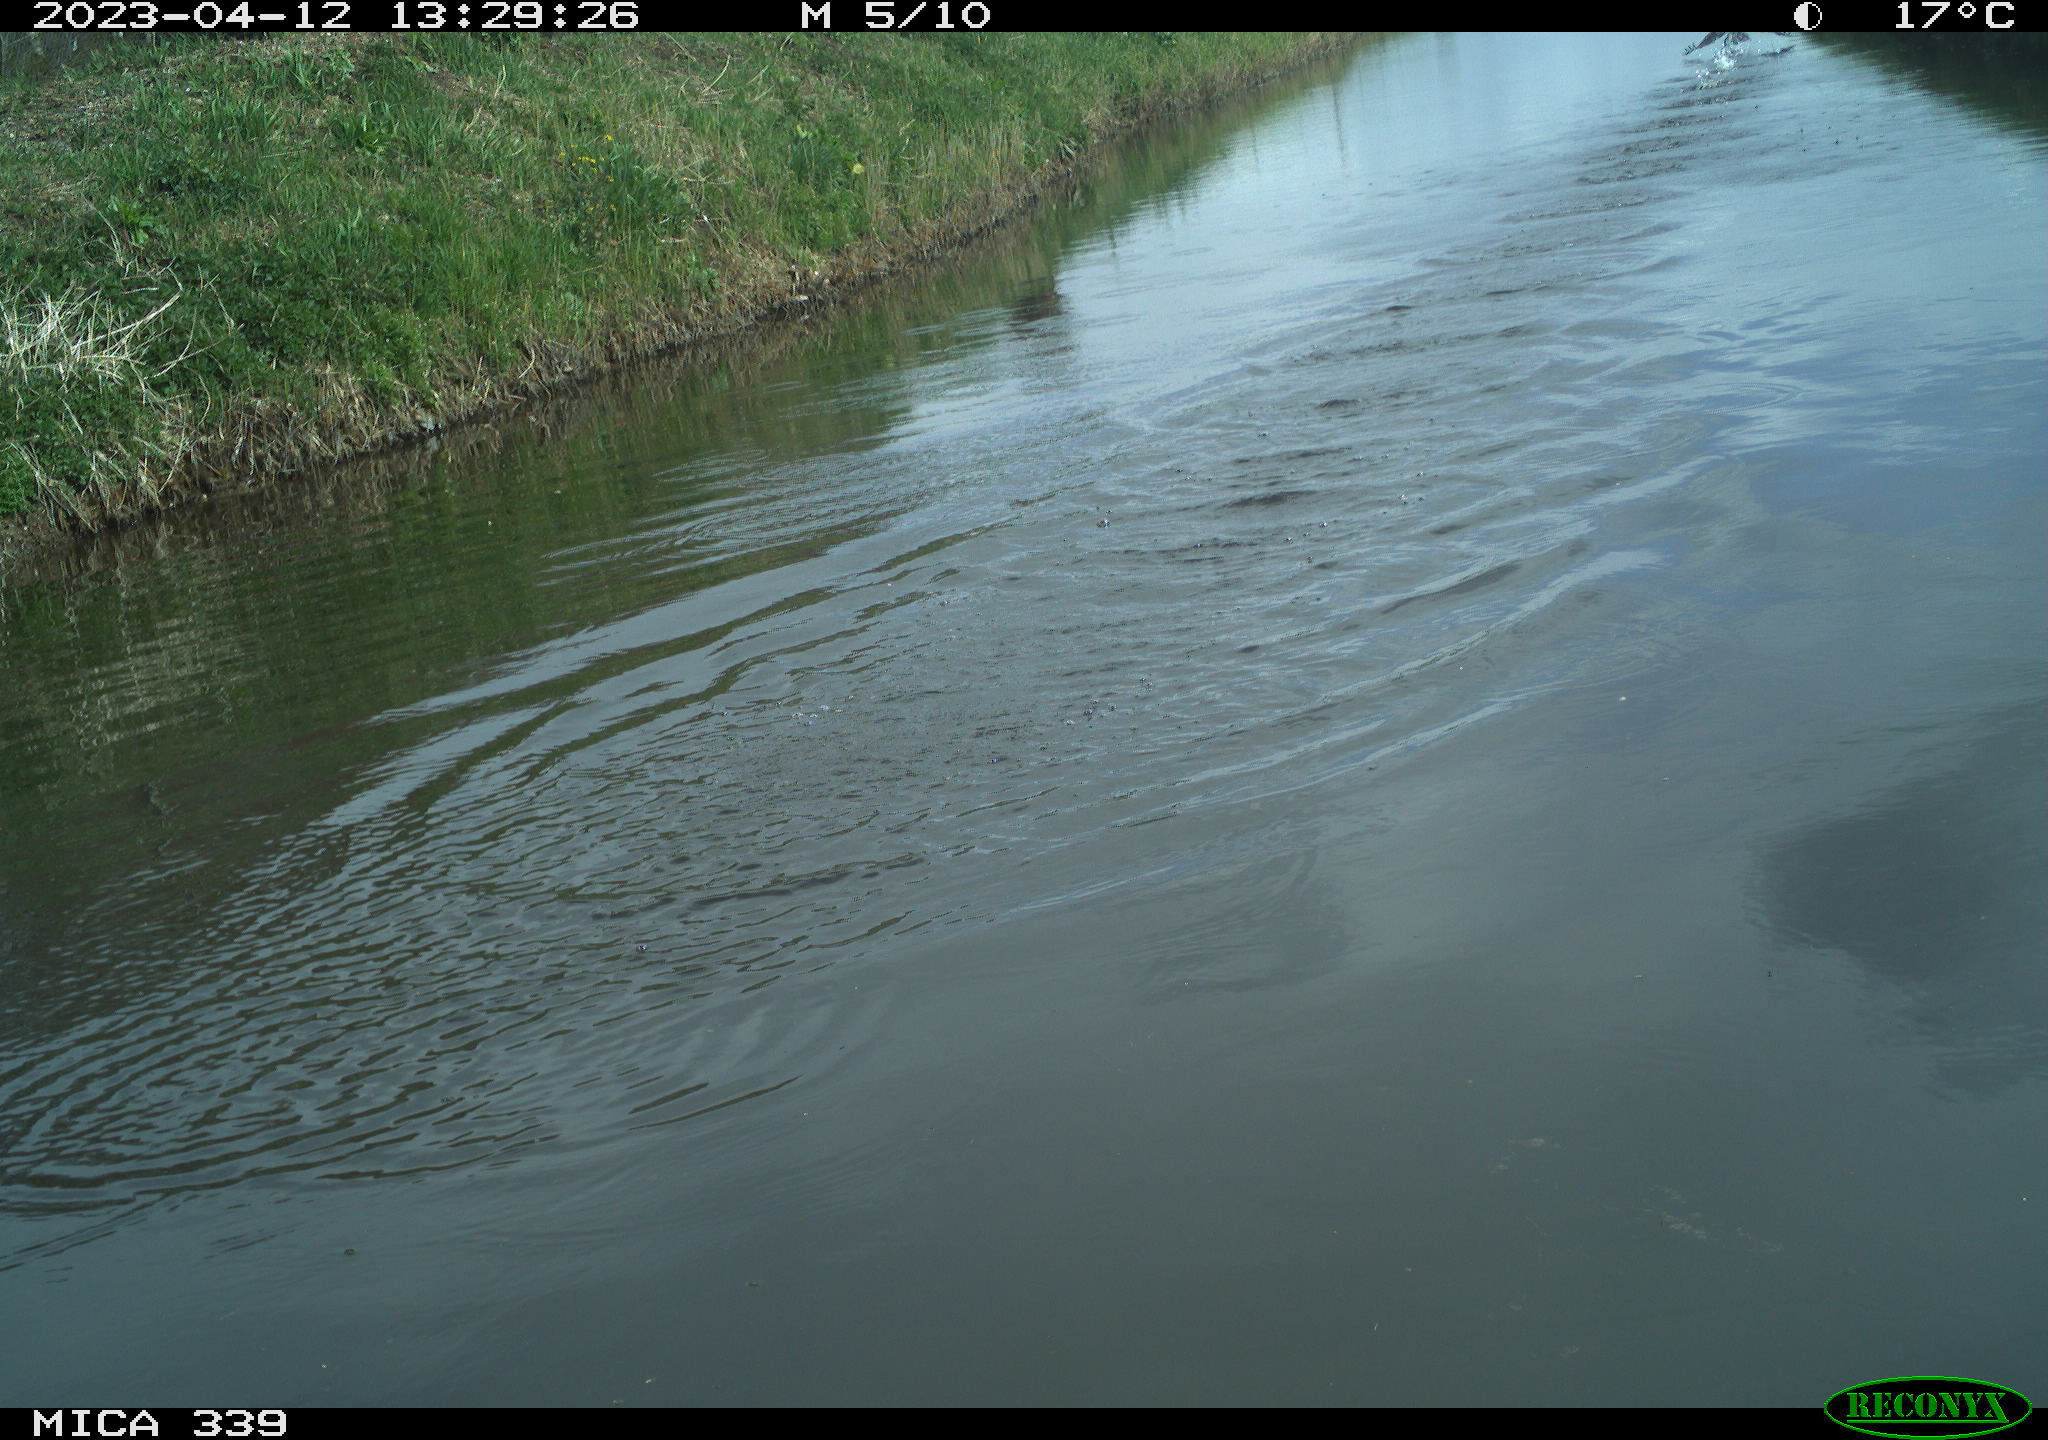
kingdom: Animalia
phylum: Chordata
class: Aves
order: Suliformes
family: Phalacrocoracidae
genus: Phalacrocorax
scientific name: Phalacrocorax carbo
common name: Great cormorant
